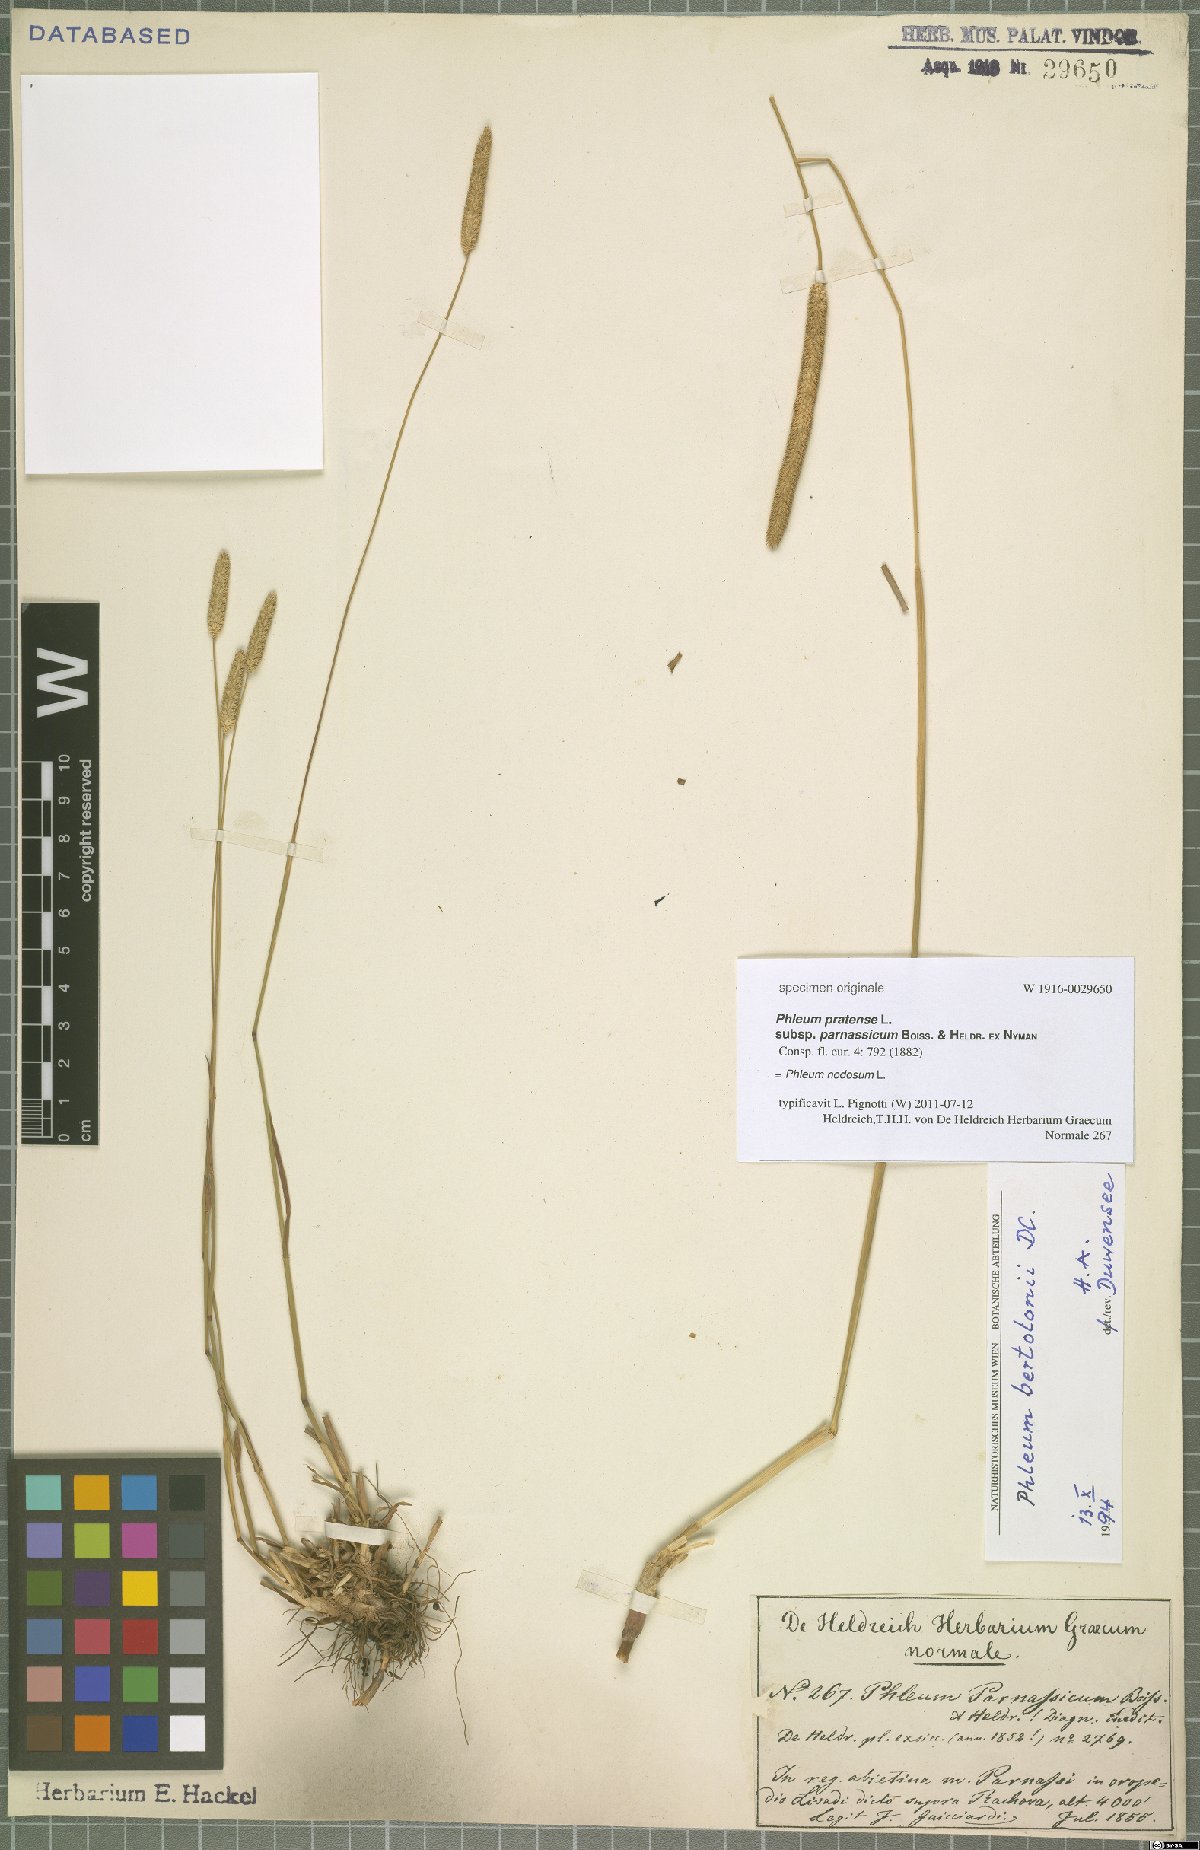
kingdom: Plantae
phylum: Tracheophyta
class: Liliopsida
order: Poales
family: Poaceae
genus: Phleum
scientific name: Phleum pratense
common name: Timothy grass
